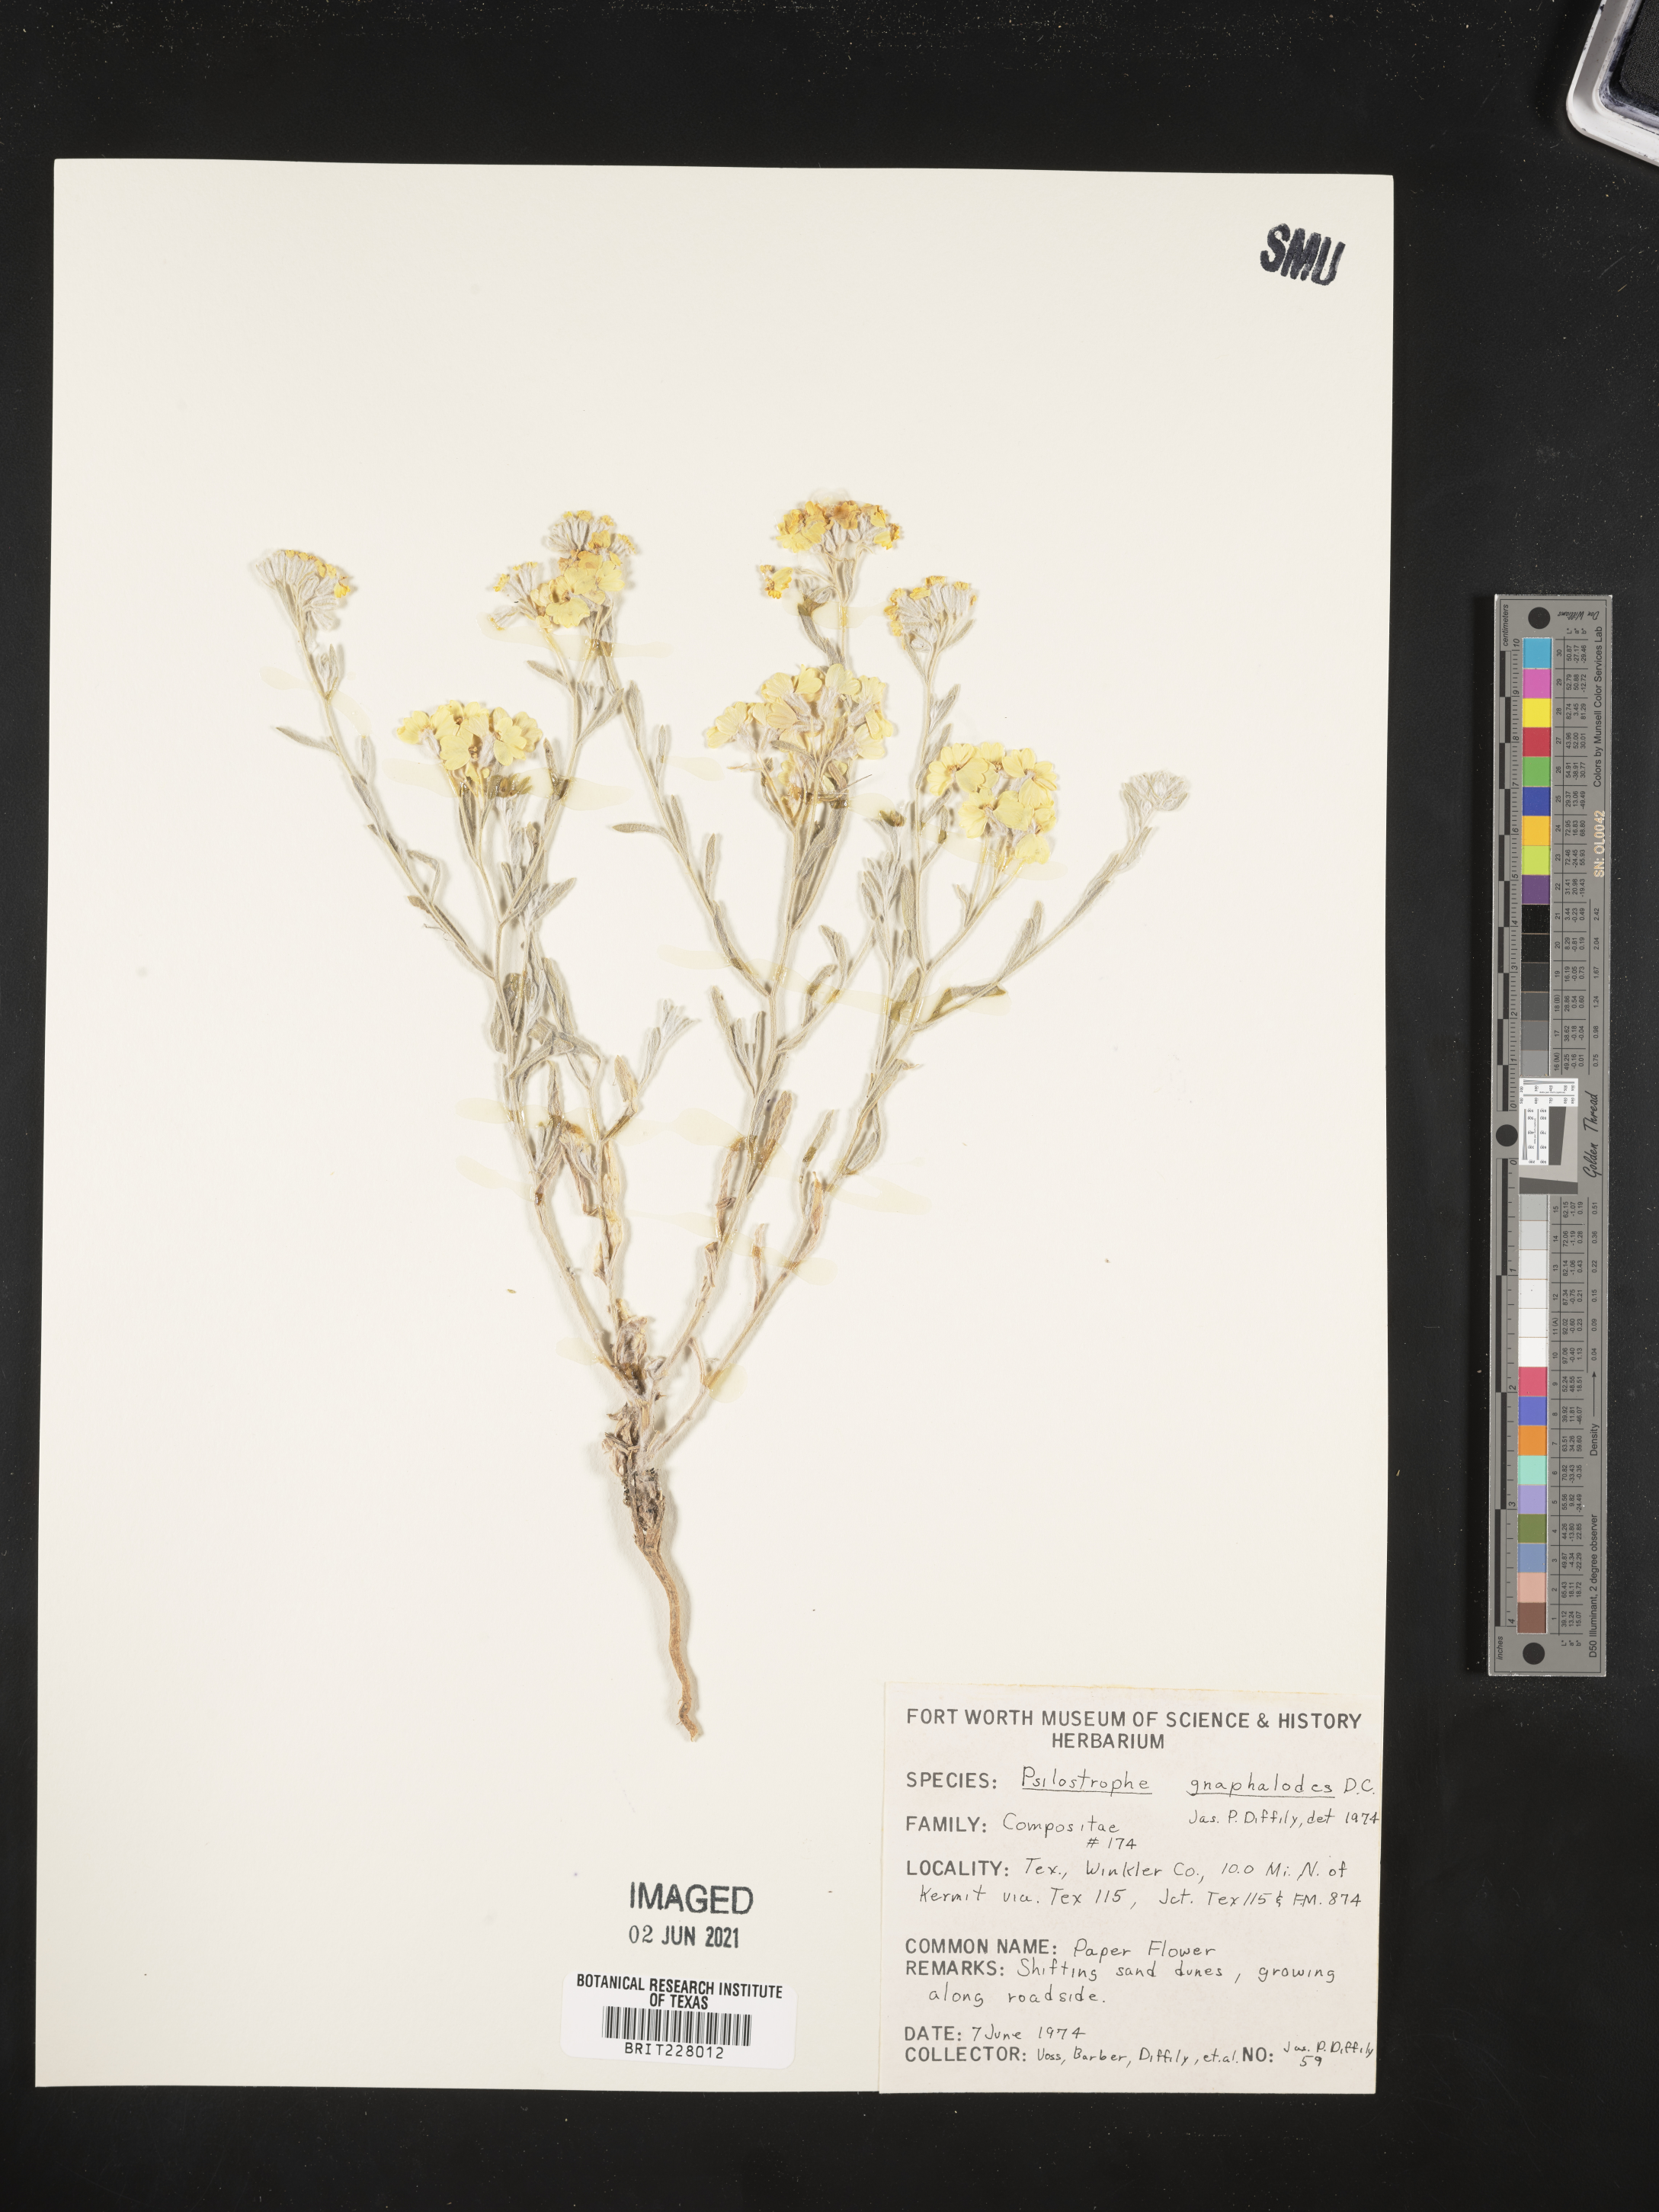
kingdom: Plantae
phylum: Tracheophyta
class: Magnoliopsida
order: Asterales
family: Asteraceae
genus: Psilostrophe
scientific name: Psilostrophe gnaphalioides
